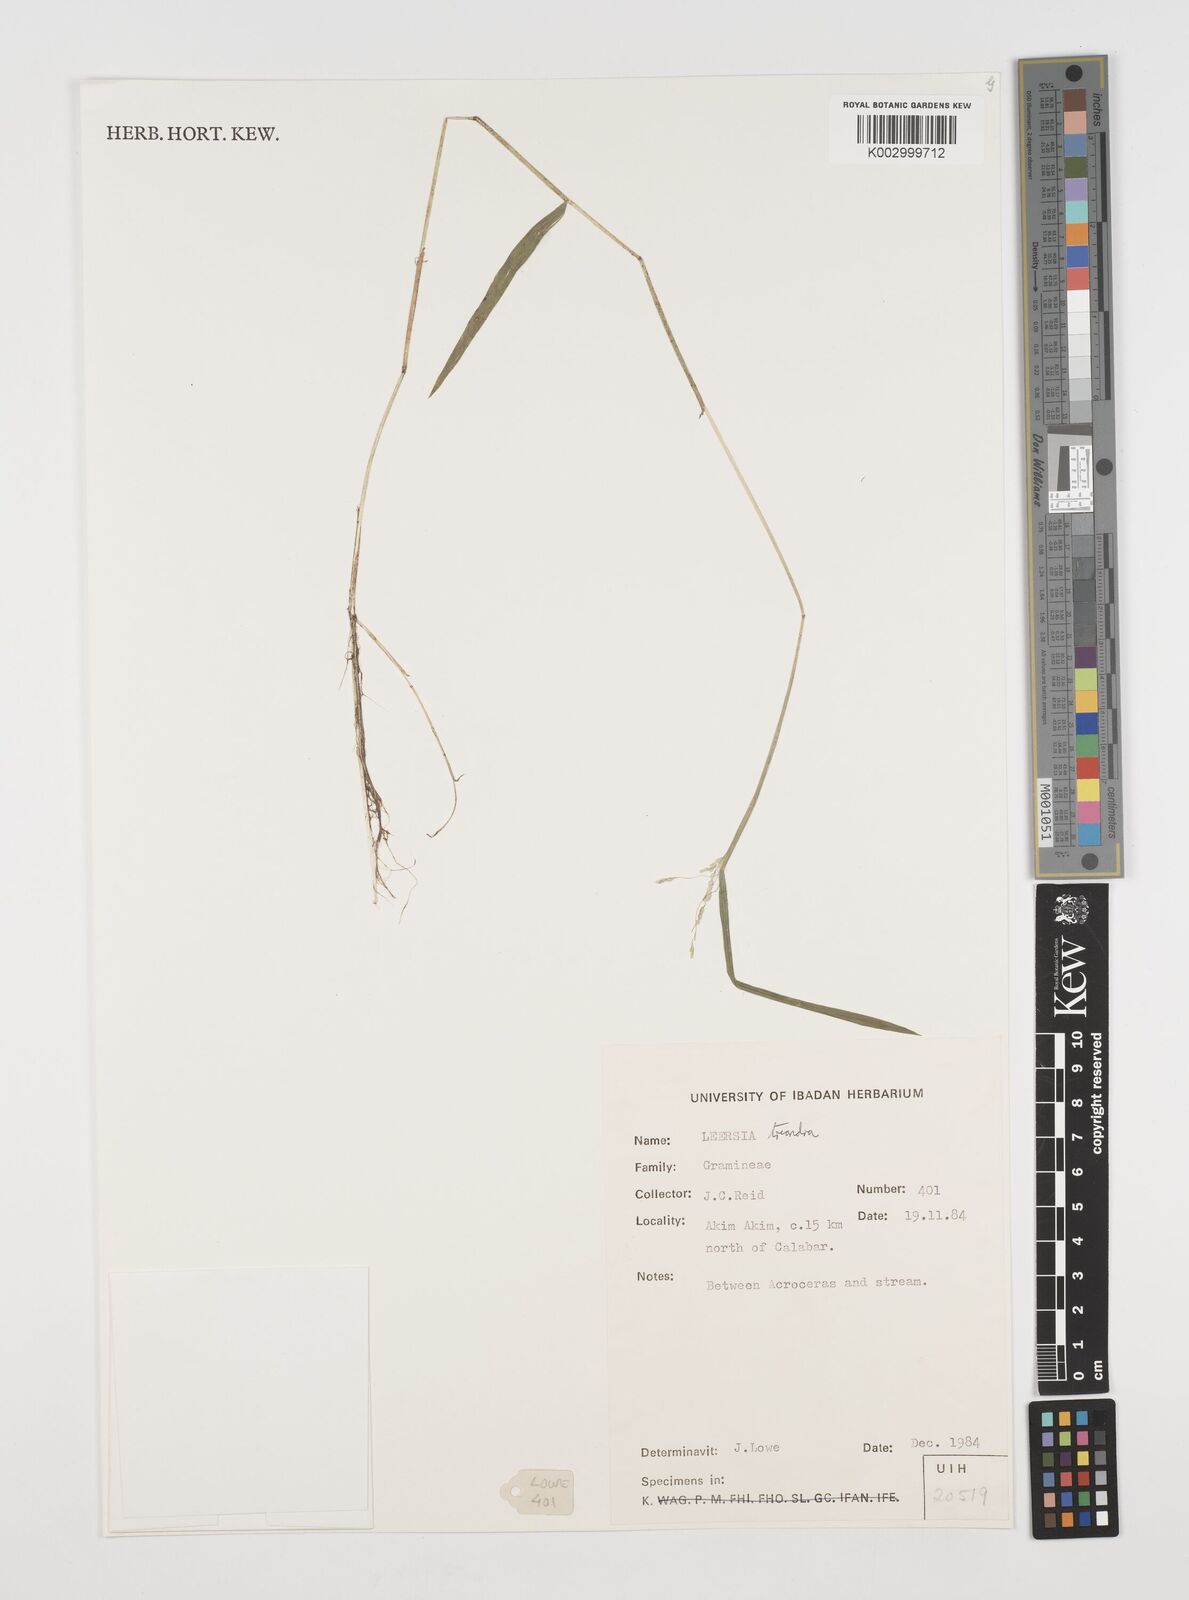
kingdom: Plantae
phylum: Tracheophyta
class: Liliopsida
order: Poales
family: Poaceae
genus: Leersia
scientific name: Leersia triandra
